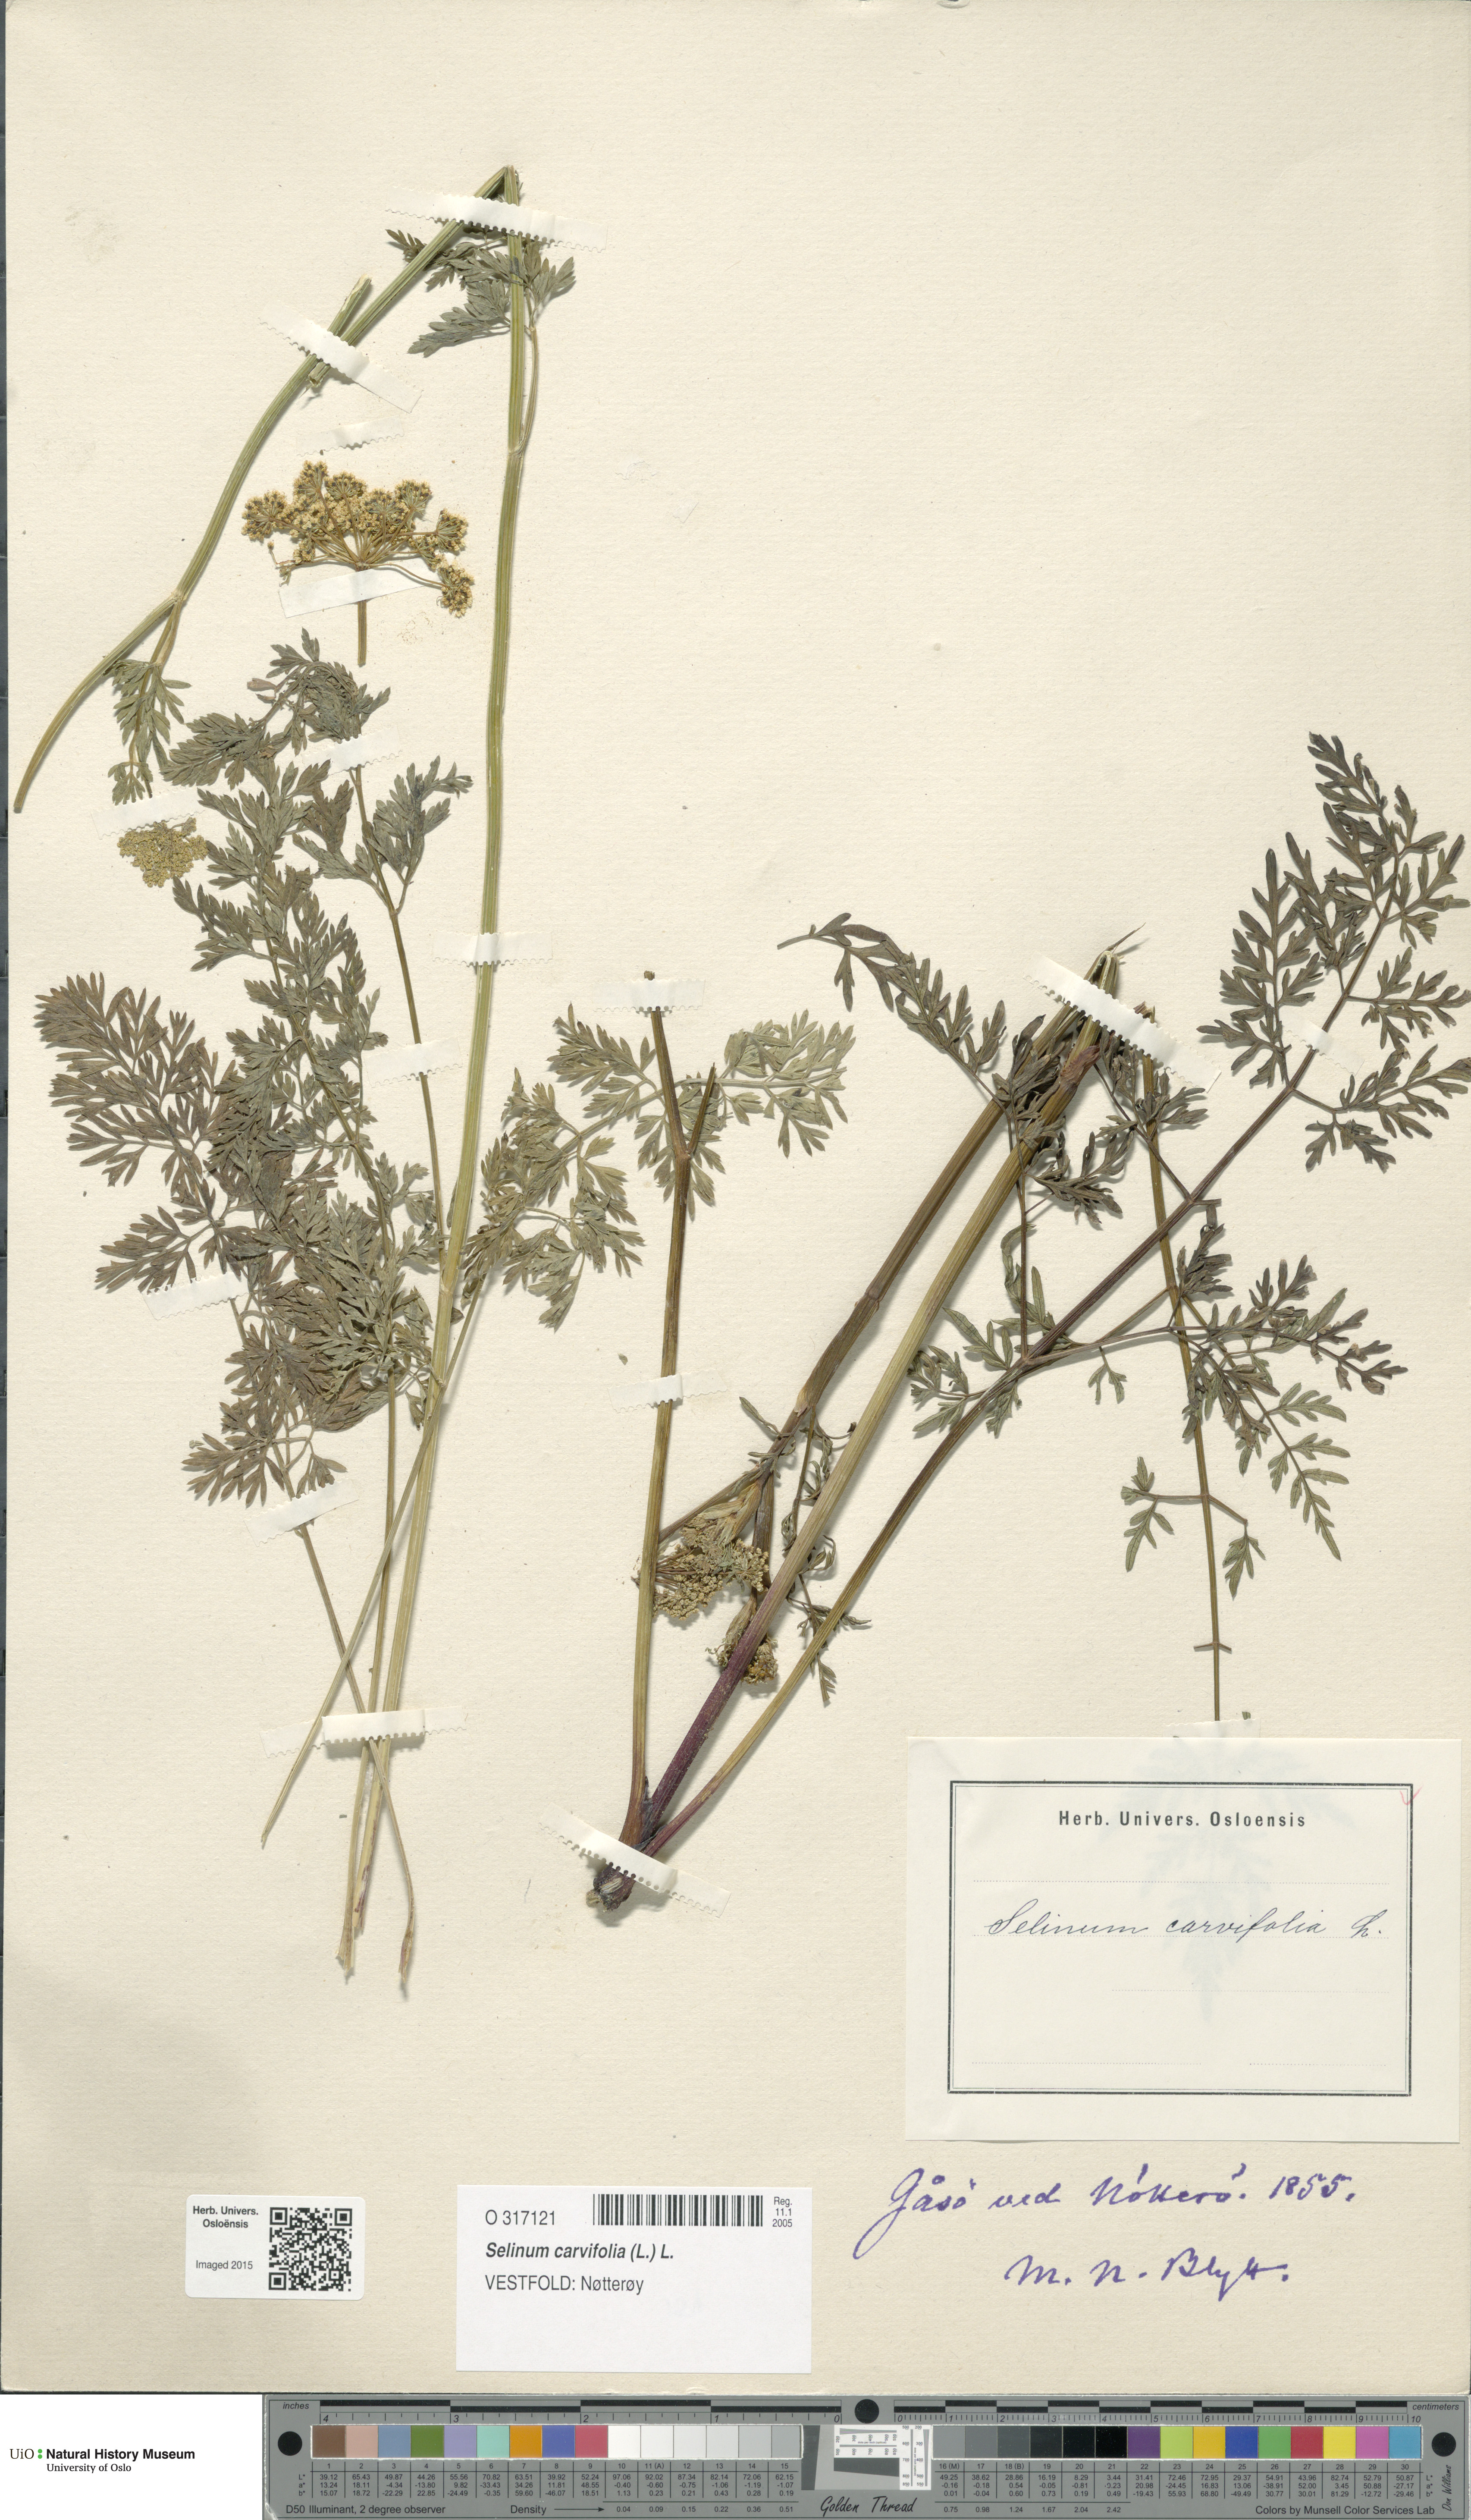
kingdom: Plantae
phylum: Tracheophyta
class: Magnoliopsida
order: Apiales
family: Apiaceae
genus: Selinum
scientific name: Selinum carvifolia
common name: Cambridge milk-parsley
